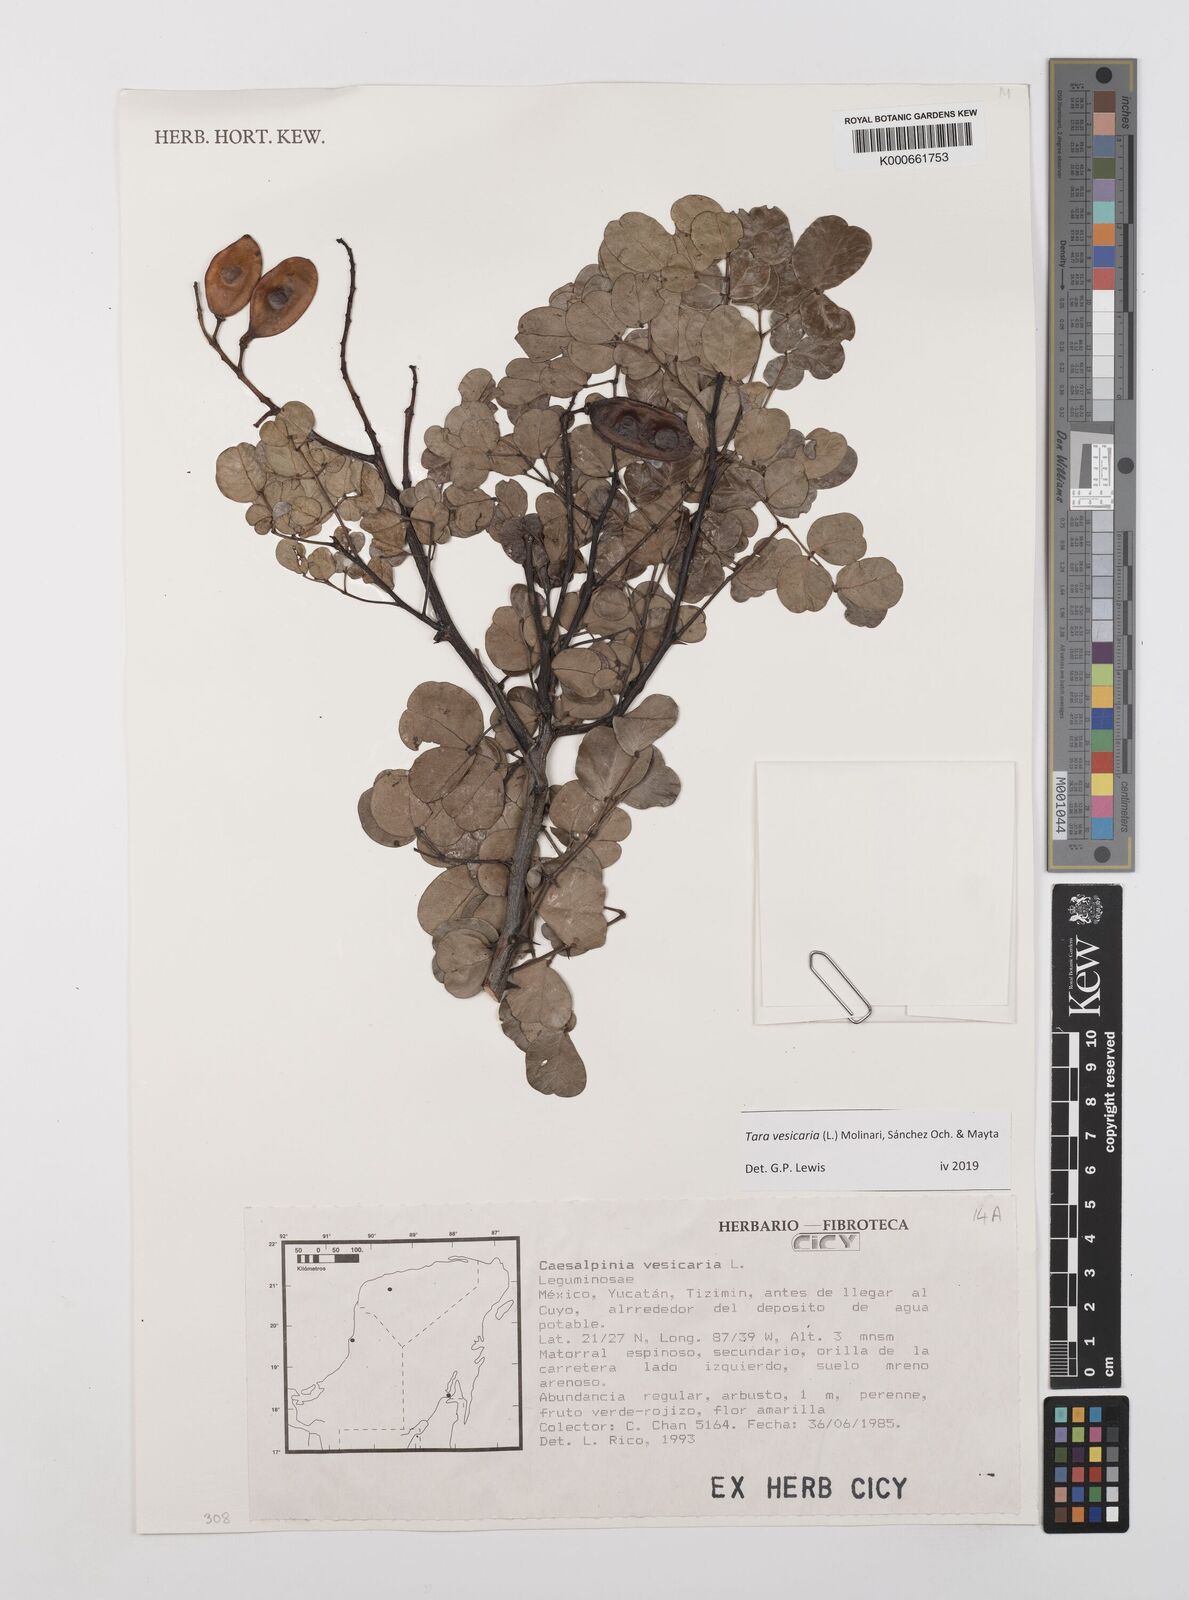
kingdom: Plantae
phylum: Tracheophyta
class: Magnoliopsida
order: Fabales
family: Fabaceae
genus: Tara
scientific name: Tara vesicaria
